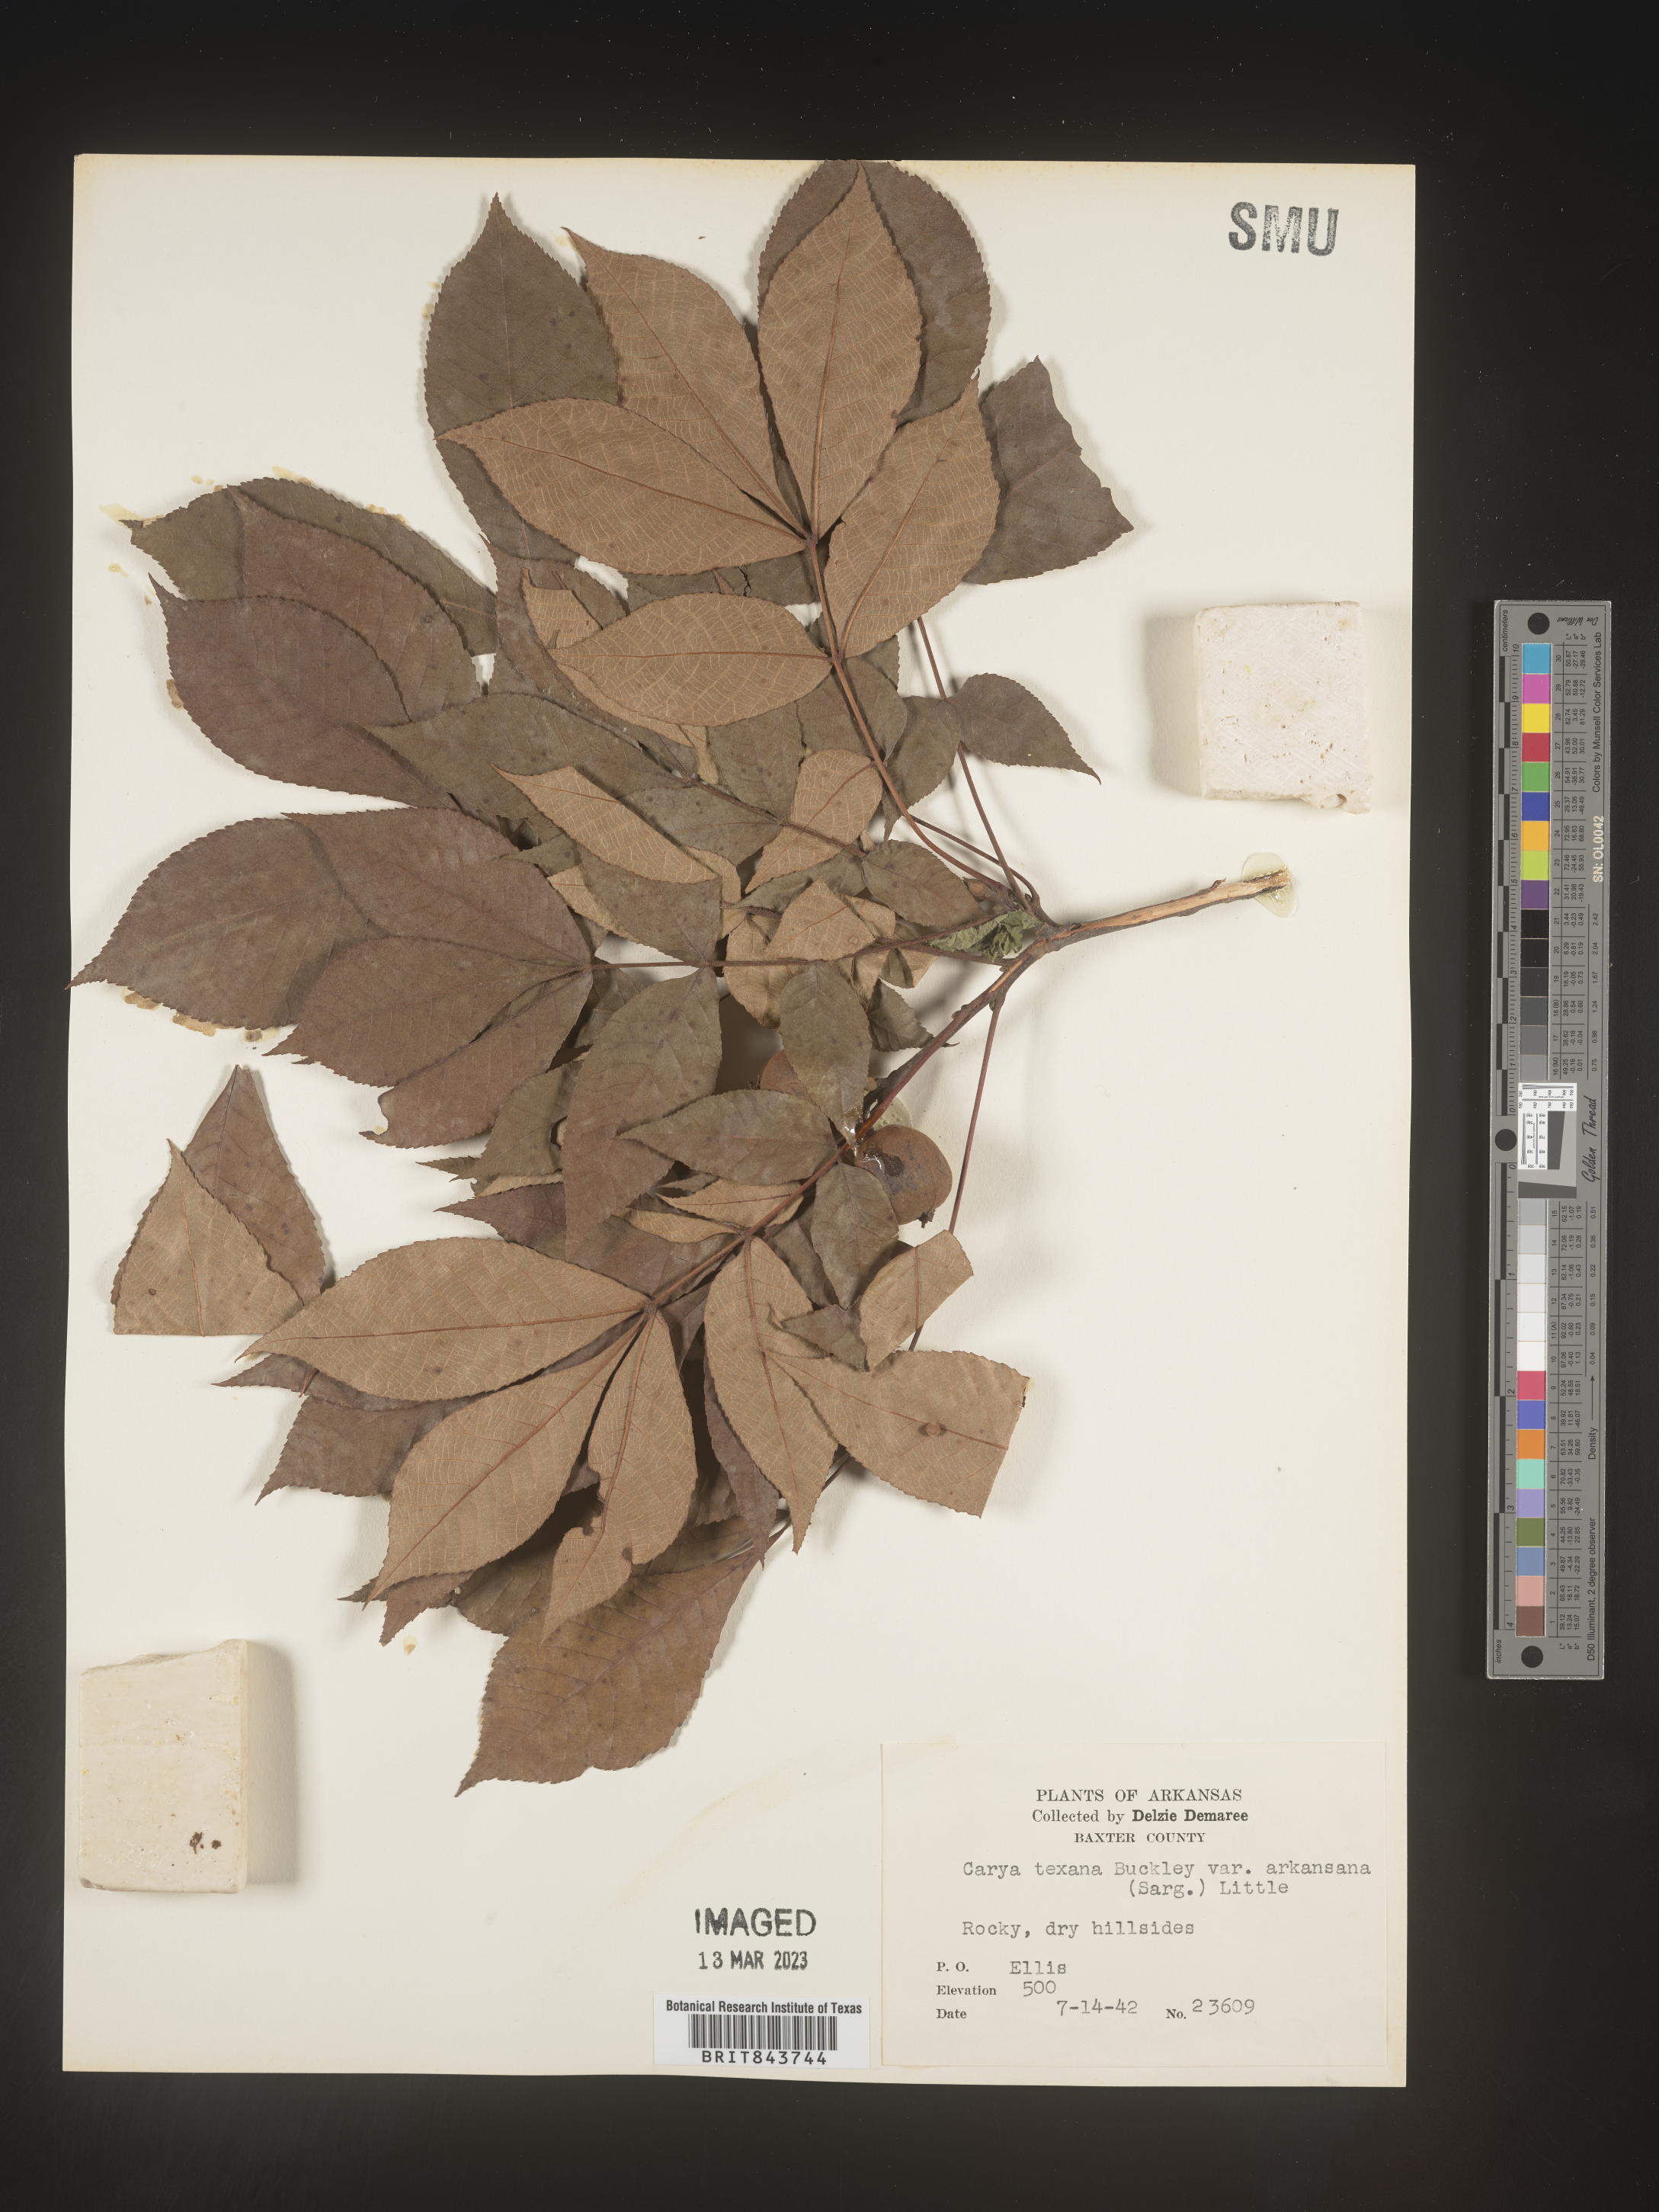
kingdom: Plantae
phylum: Tracheophyta
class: Magnoliopsida
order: Fagales
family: Juglandaceae
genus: Carya
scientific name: Carya texana
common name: Black hickory
